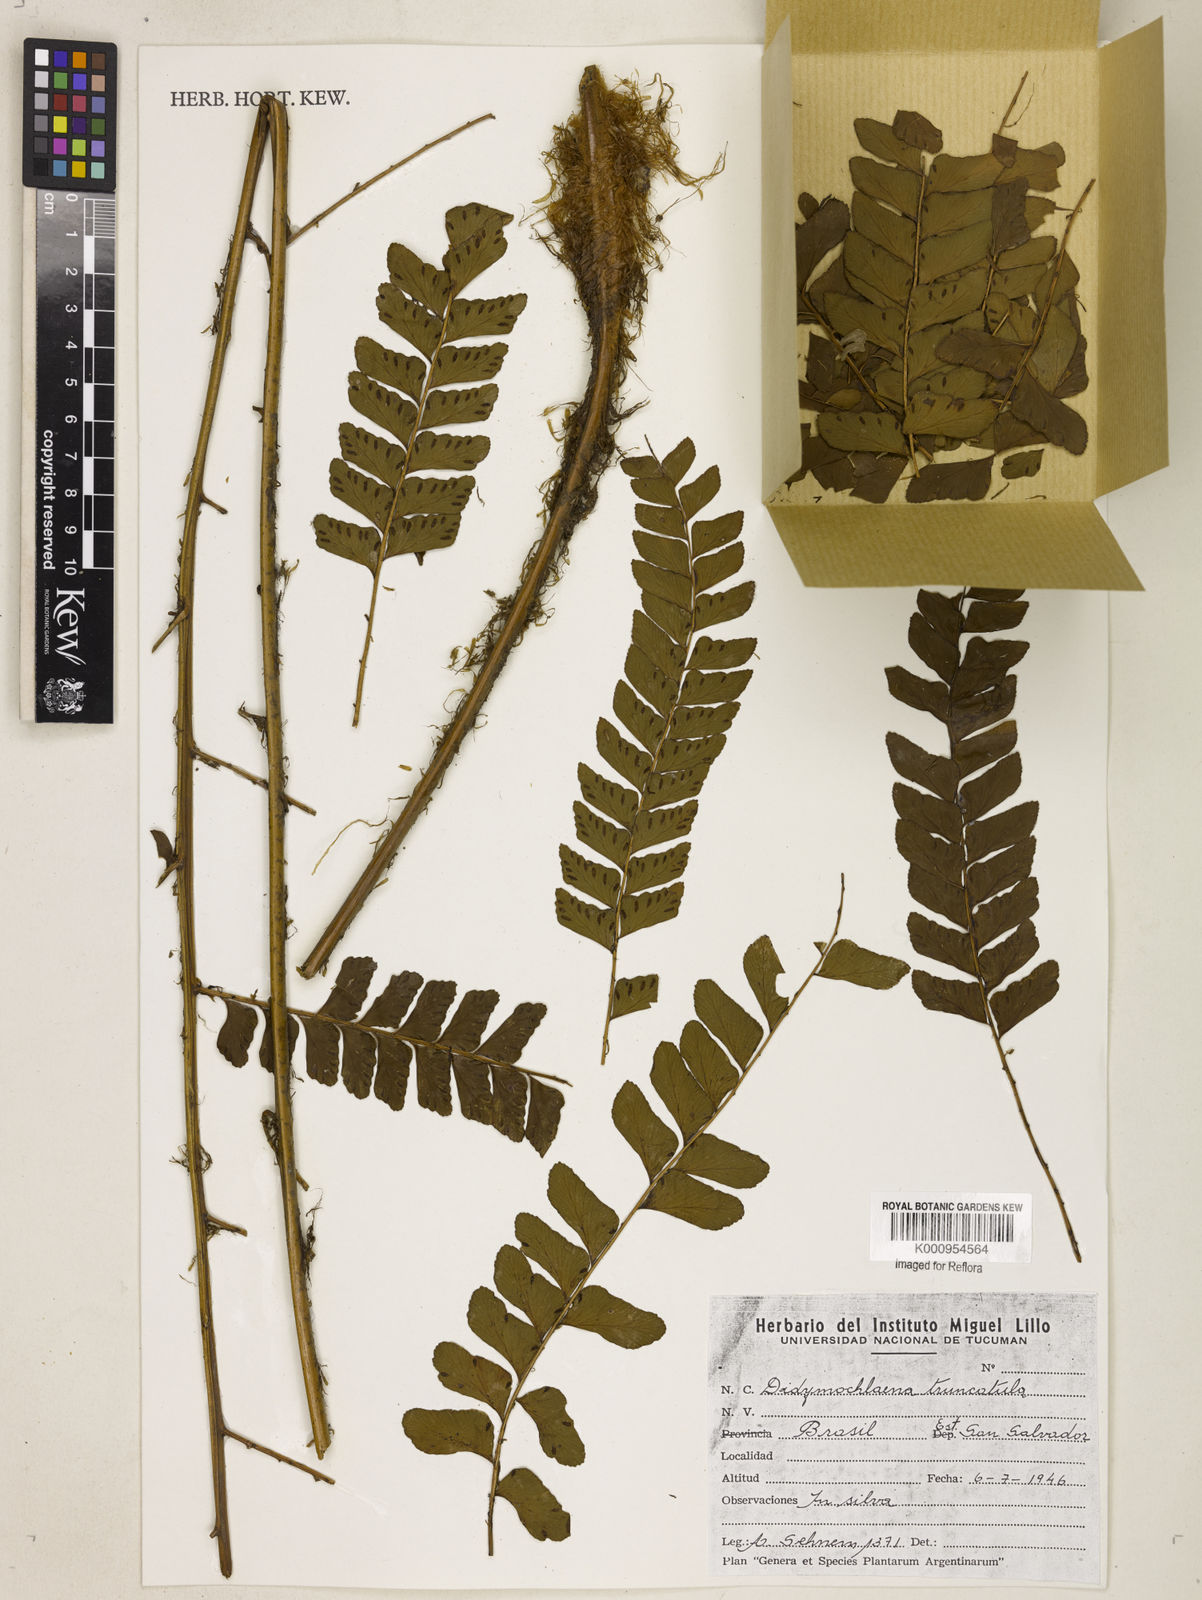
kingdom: Plantae
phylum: Tracheophyta
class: Polypodiopsida
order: Polypodiales
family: Didymochlaenaceae
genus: Didymochlaena
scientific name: Didymochlaena truncatula
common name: Mahogany fern
